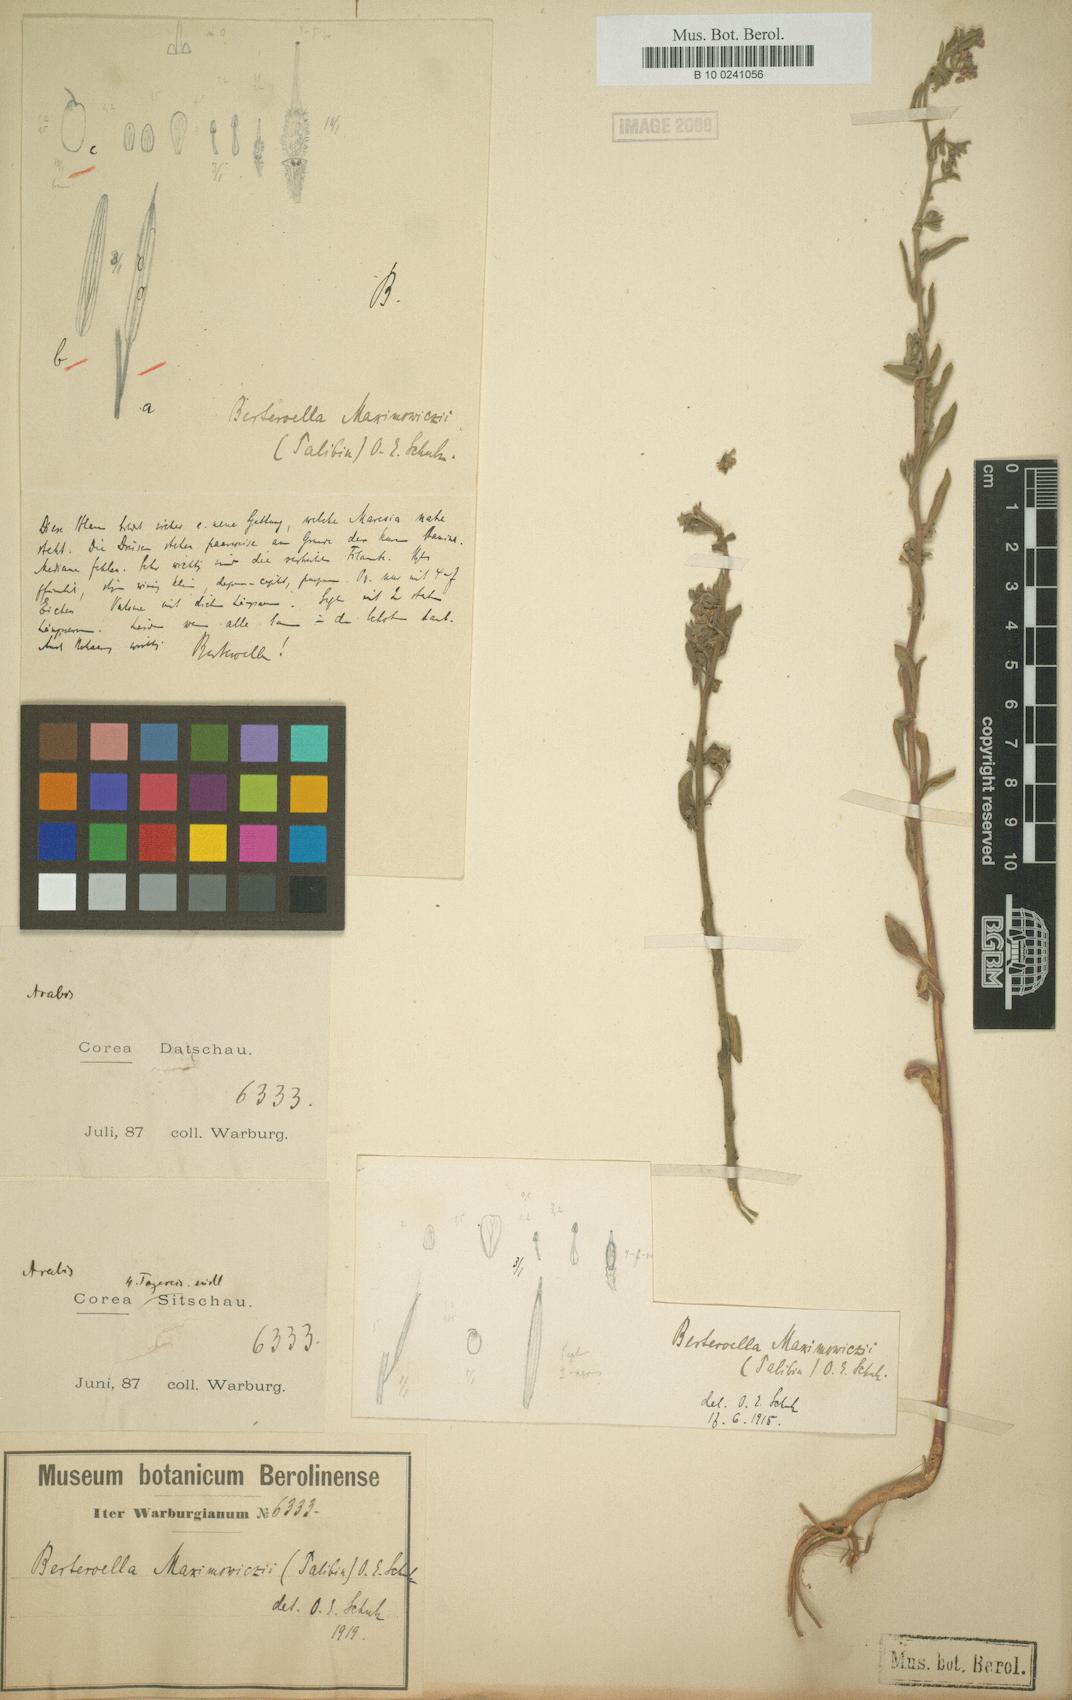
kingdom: Plantae
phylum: Tracheophyta
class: Magnoliopsida
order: Brassicales
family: Brassicaceae
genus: Stevenia
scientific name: Stevenia maximowiczii
